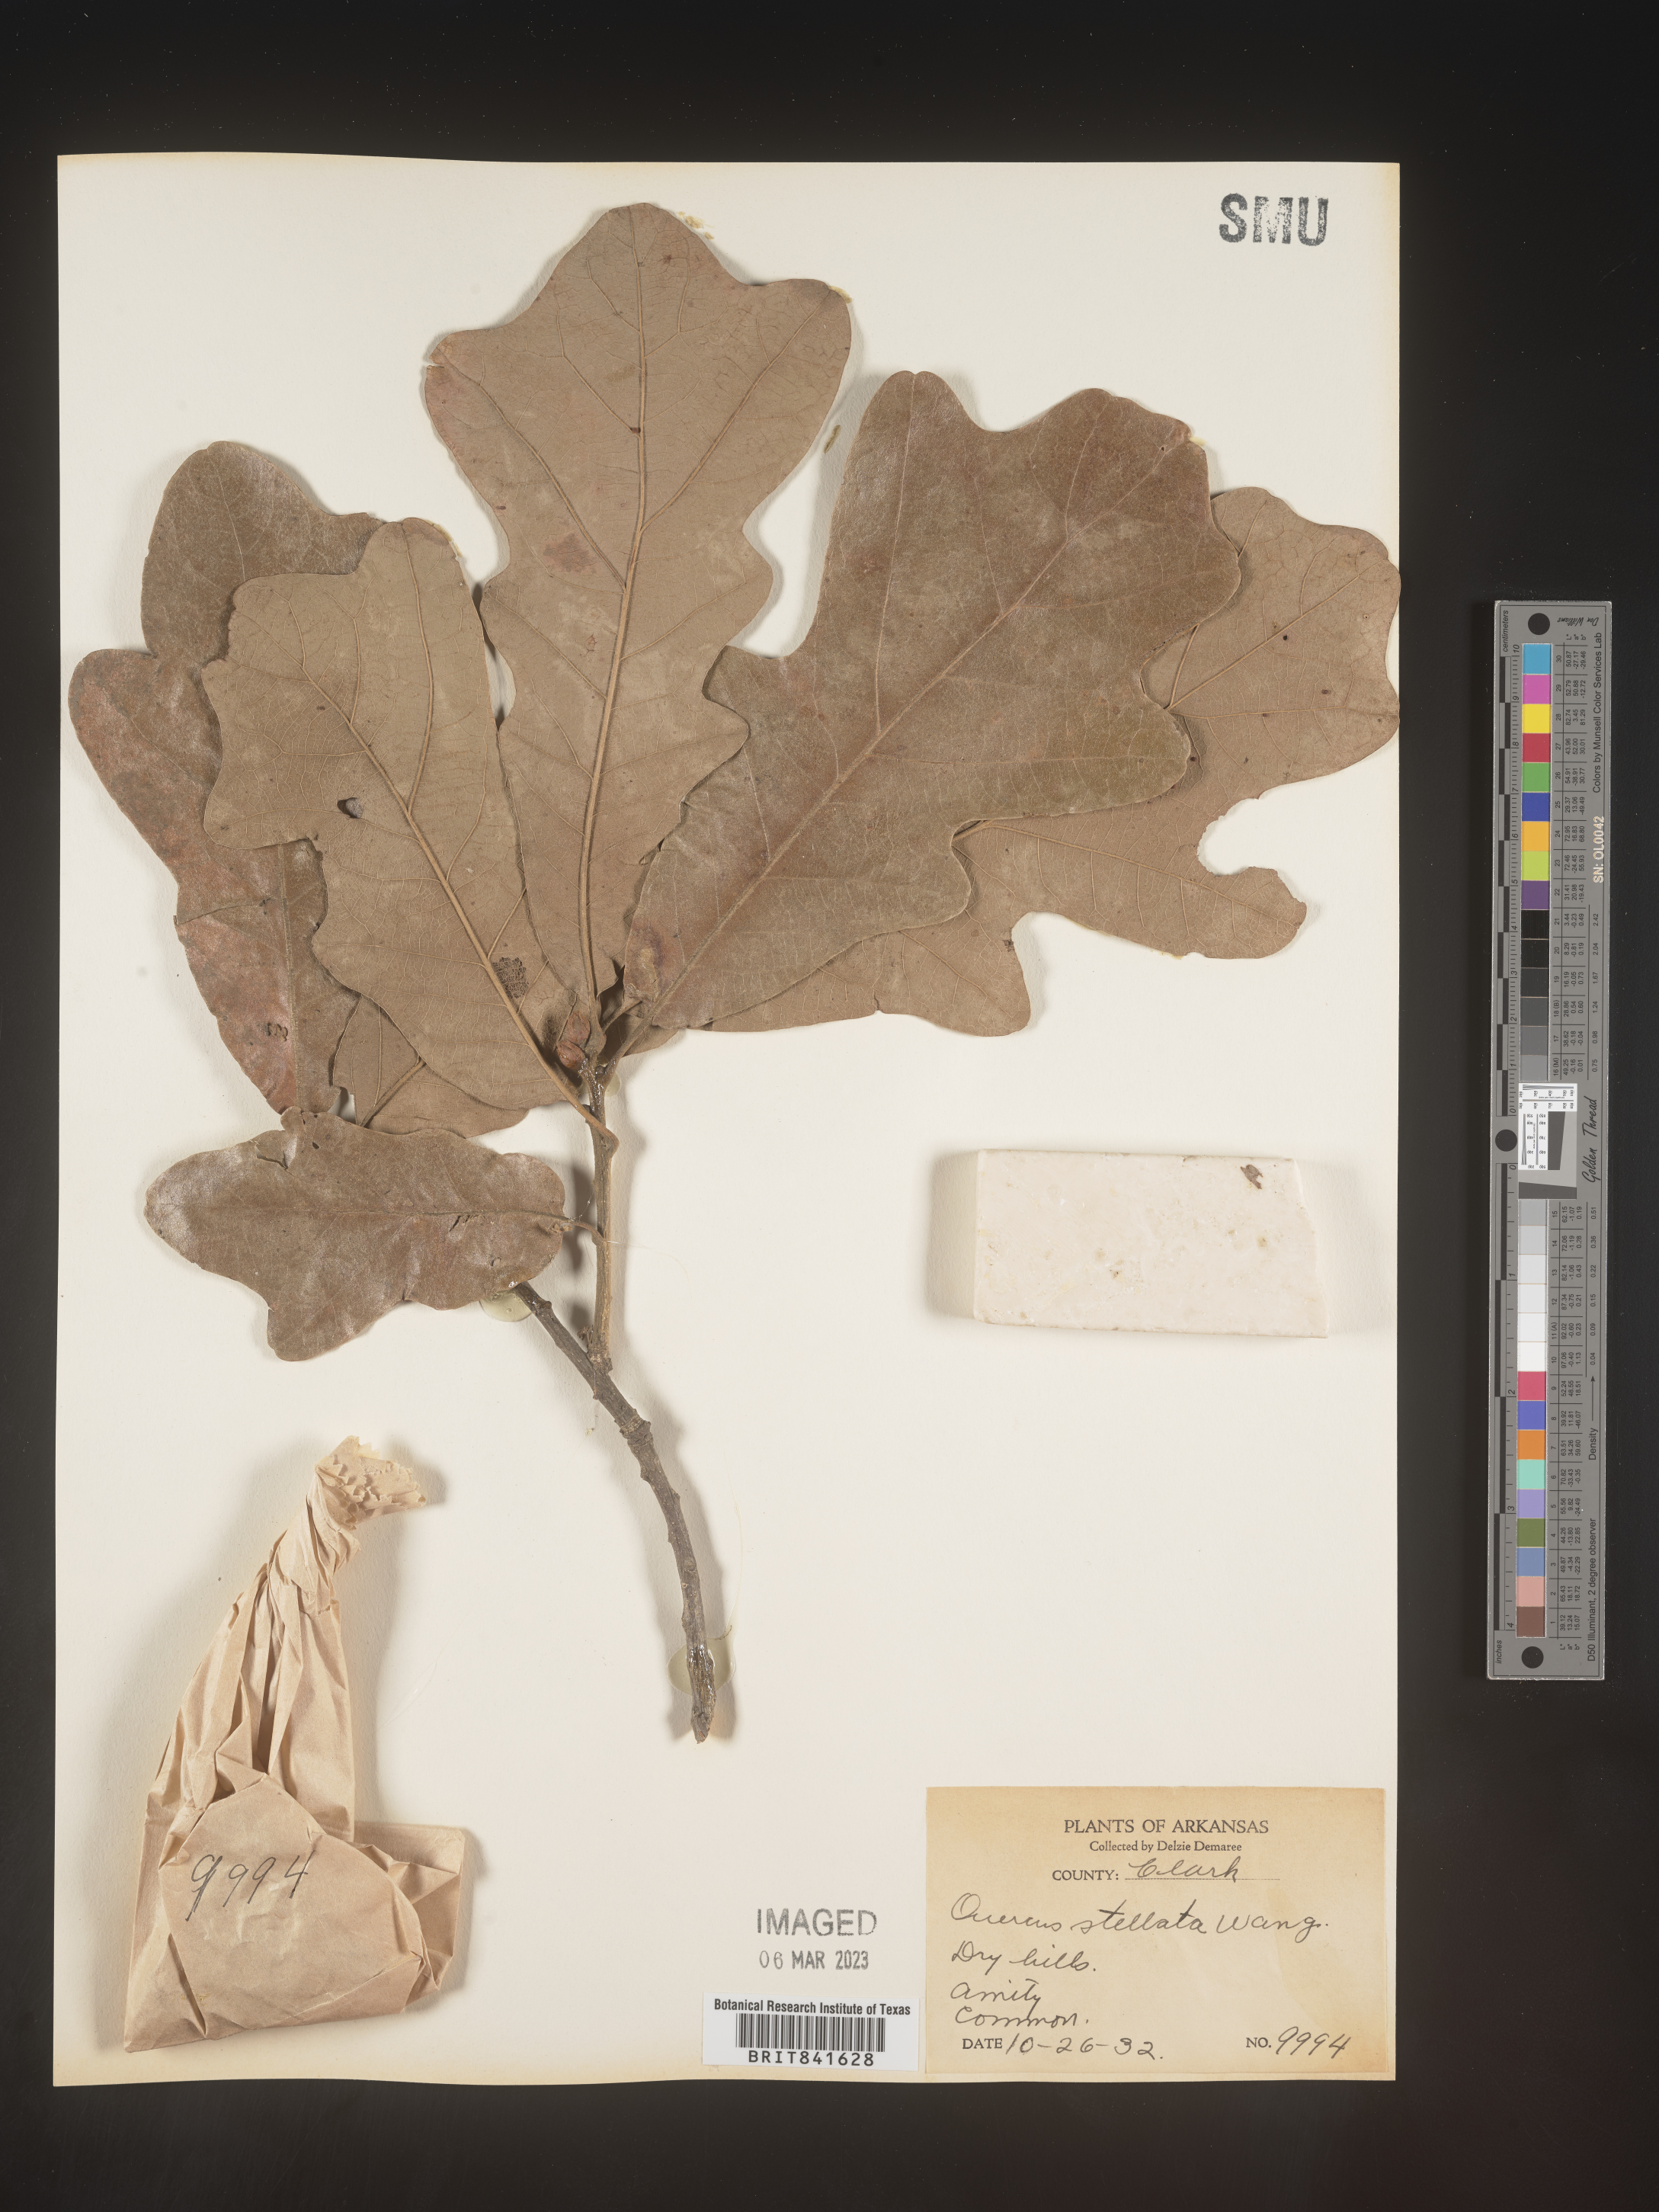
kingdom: Plantae
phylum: Tracheophyta
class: Magnoliopsida
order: Fagales
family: Fagaceae
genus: Quercus
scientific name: Quercus stellata
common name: Post oak
